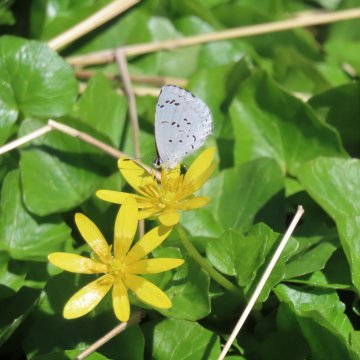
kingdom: Animalia
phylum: Arthropoda
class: Insecta
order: Lepidoptera
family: Lycaenidae
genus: Celastrina
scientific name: Celastrina
